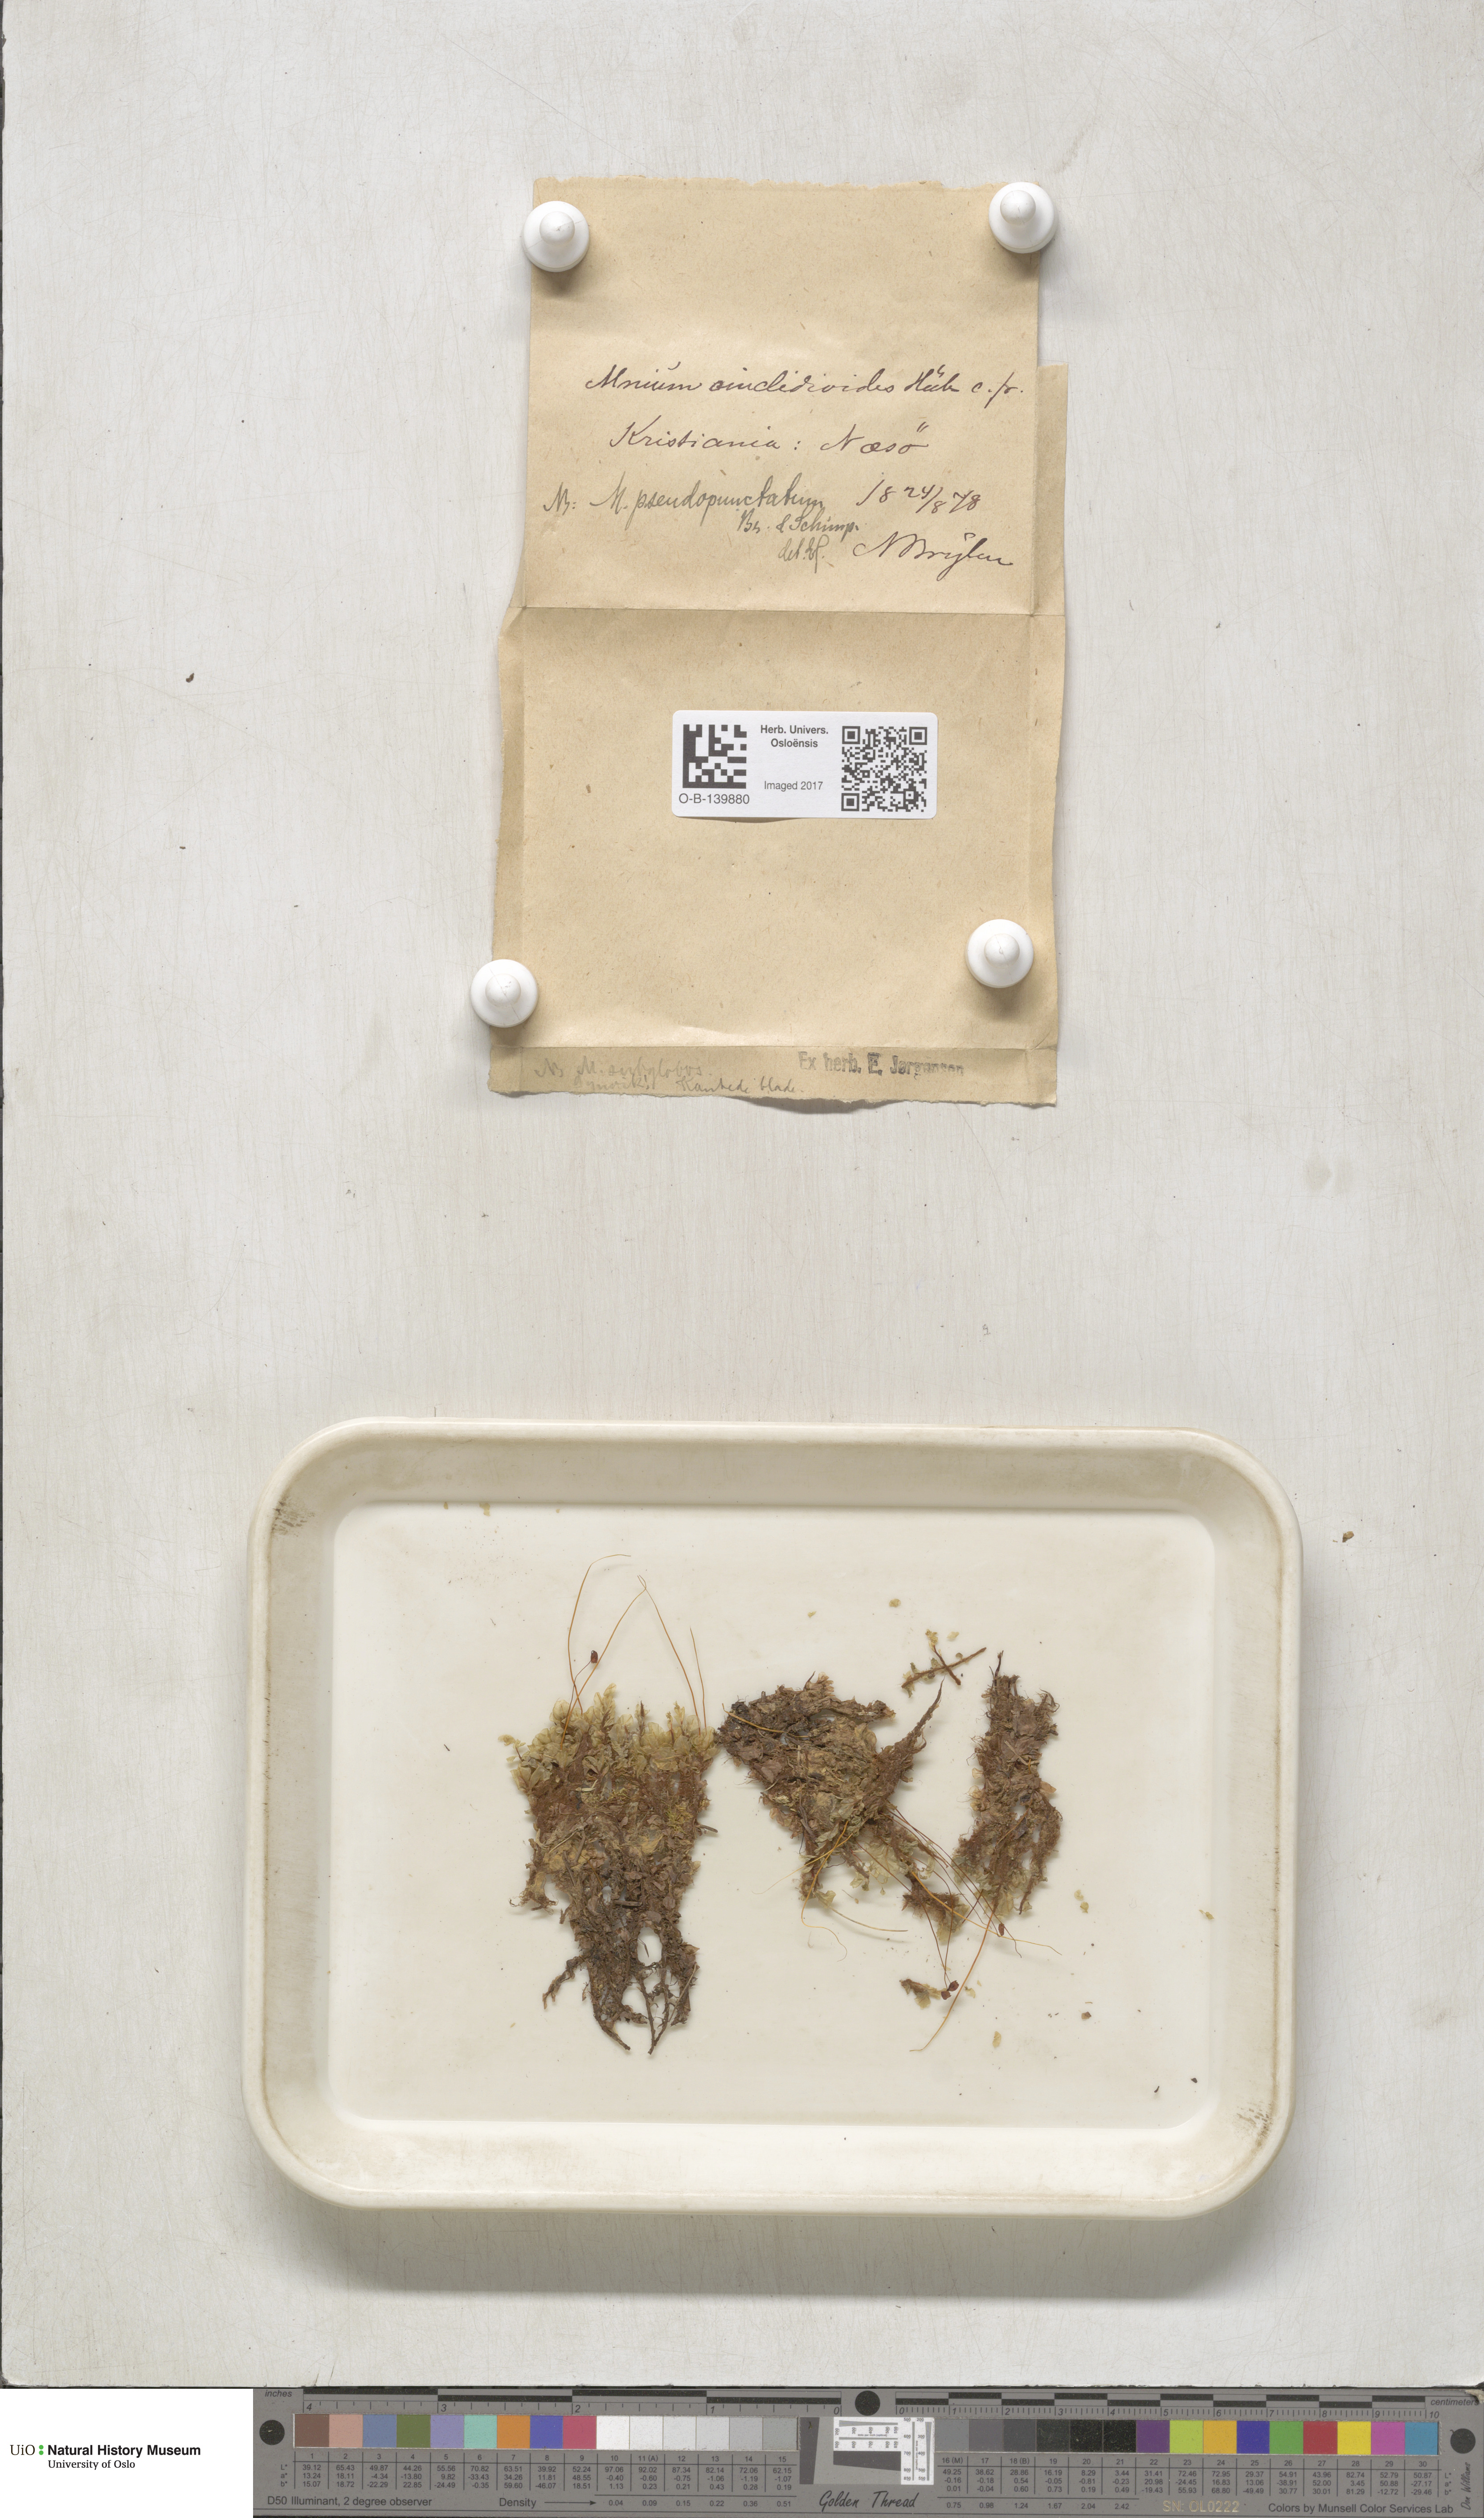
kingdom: Plantae
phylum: Bryophyta
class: Bryopsida
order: Bryales
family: Mniaceae
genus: Rhizomnium
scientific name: Rhizomnium pseudopunctatum
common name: Felted leafy moss
